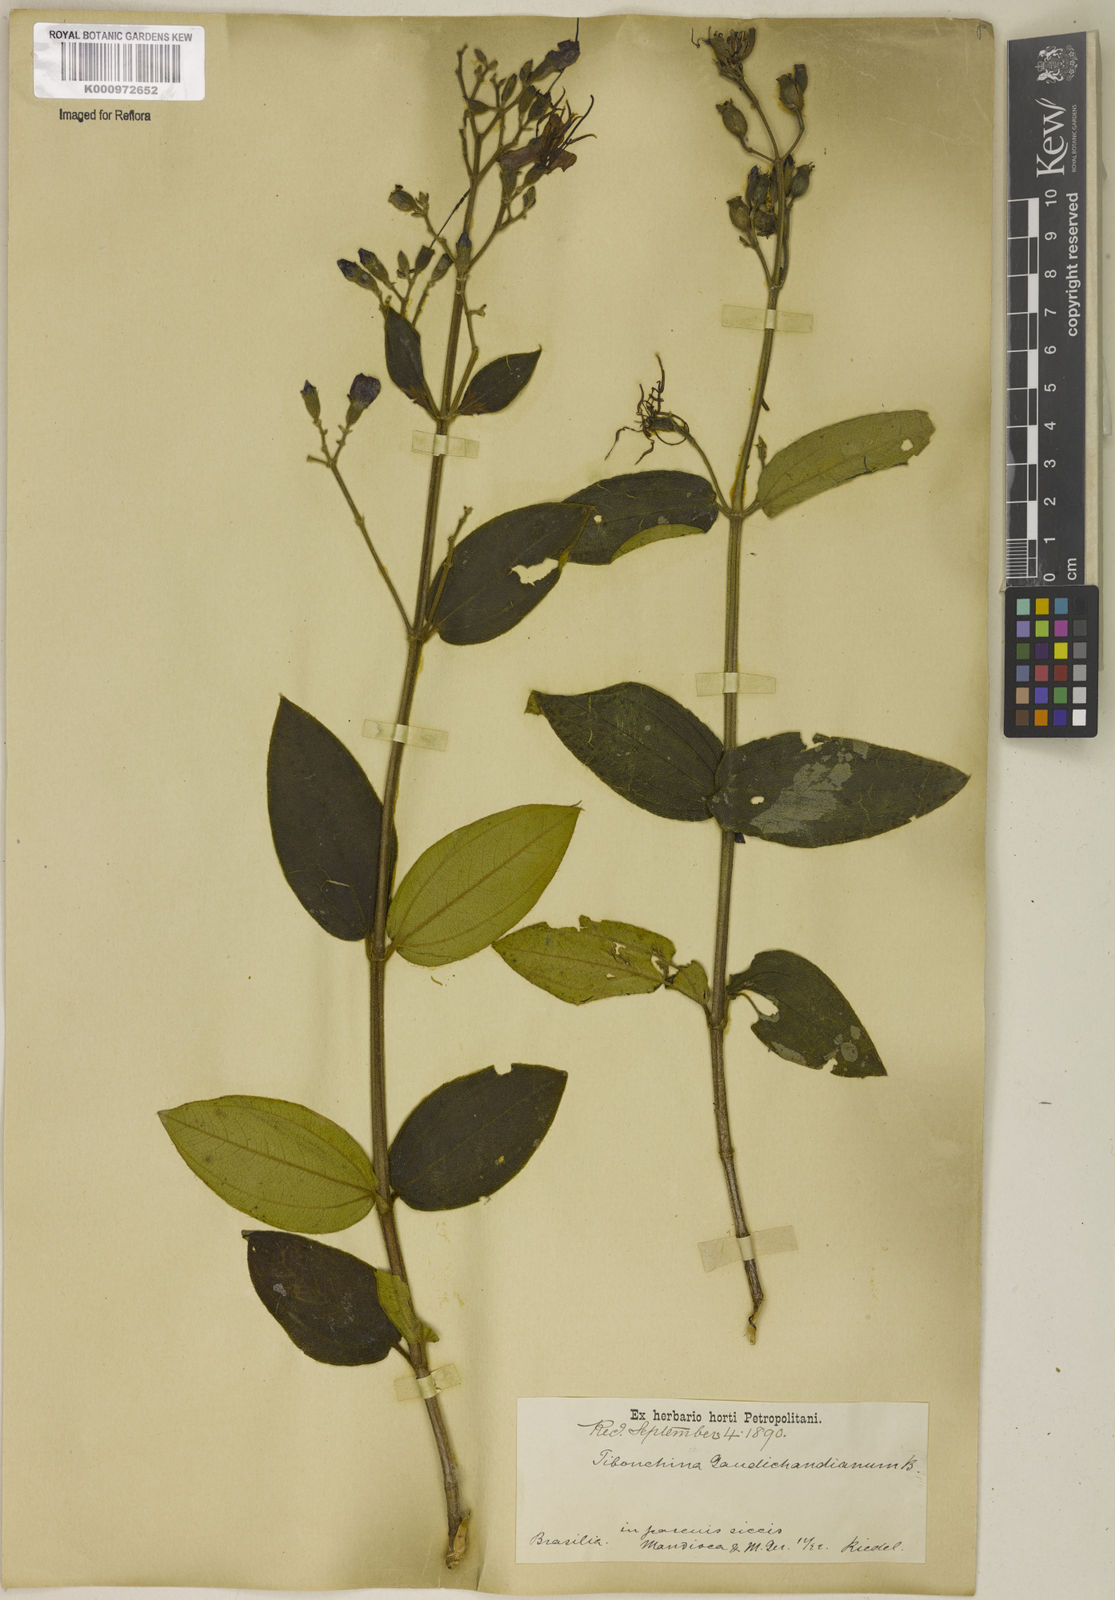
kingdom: Plantae
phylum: Tracheophyta
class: Magnoliopsida
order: Myrtales
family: Melastomataceae
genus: Pleroma
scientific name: Pleroma gaudichaudianum
